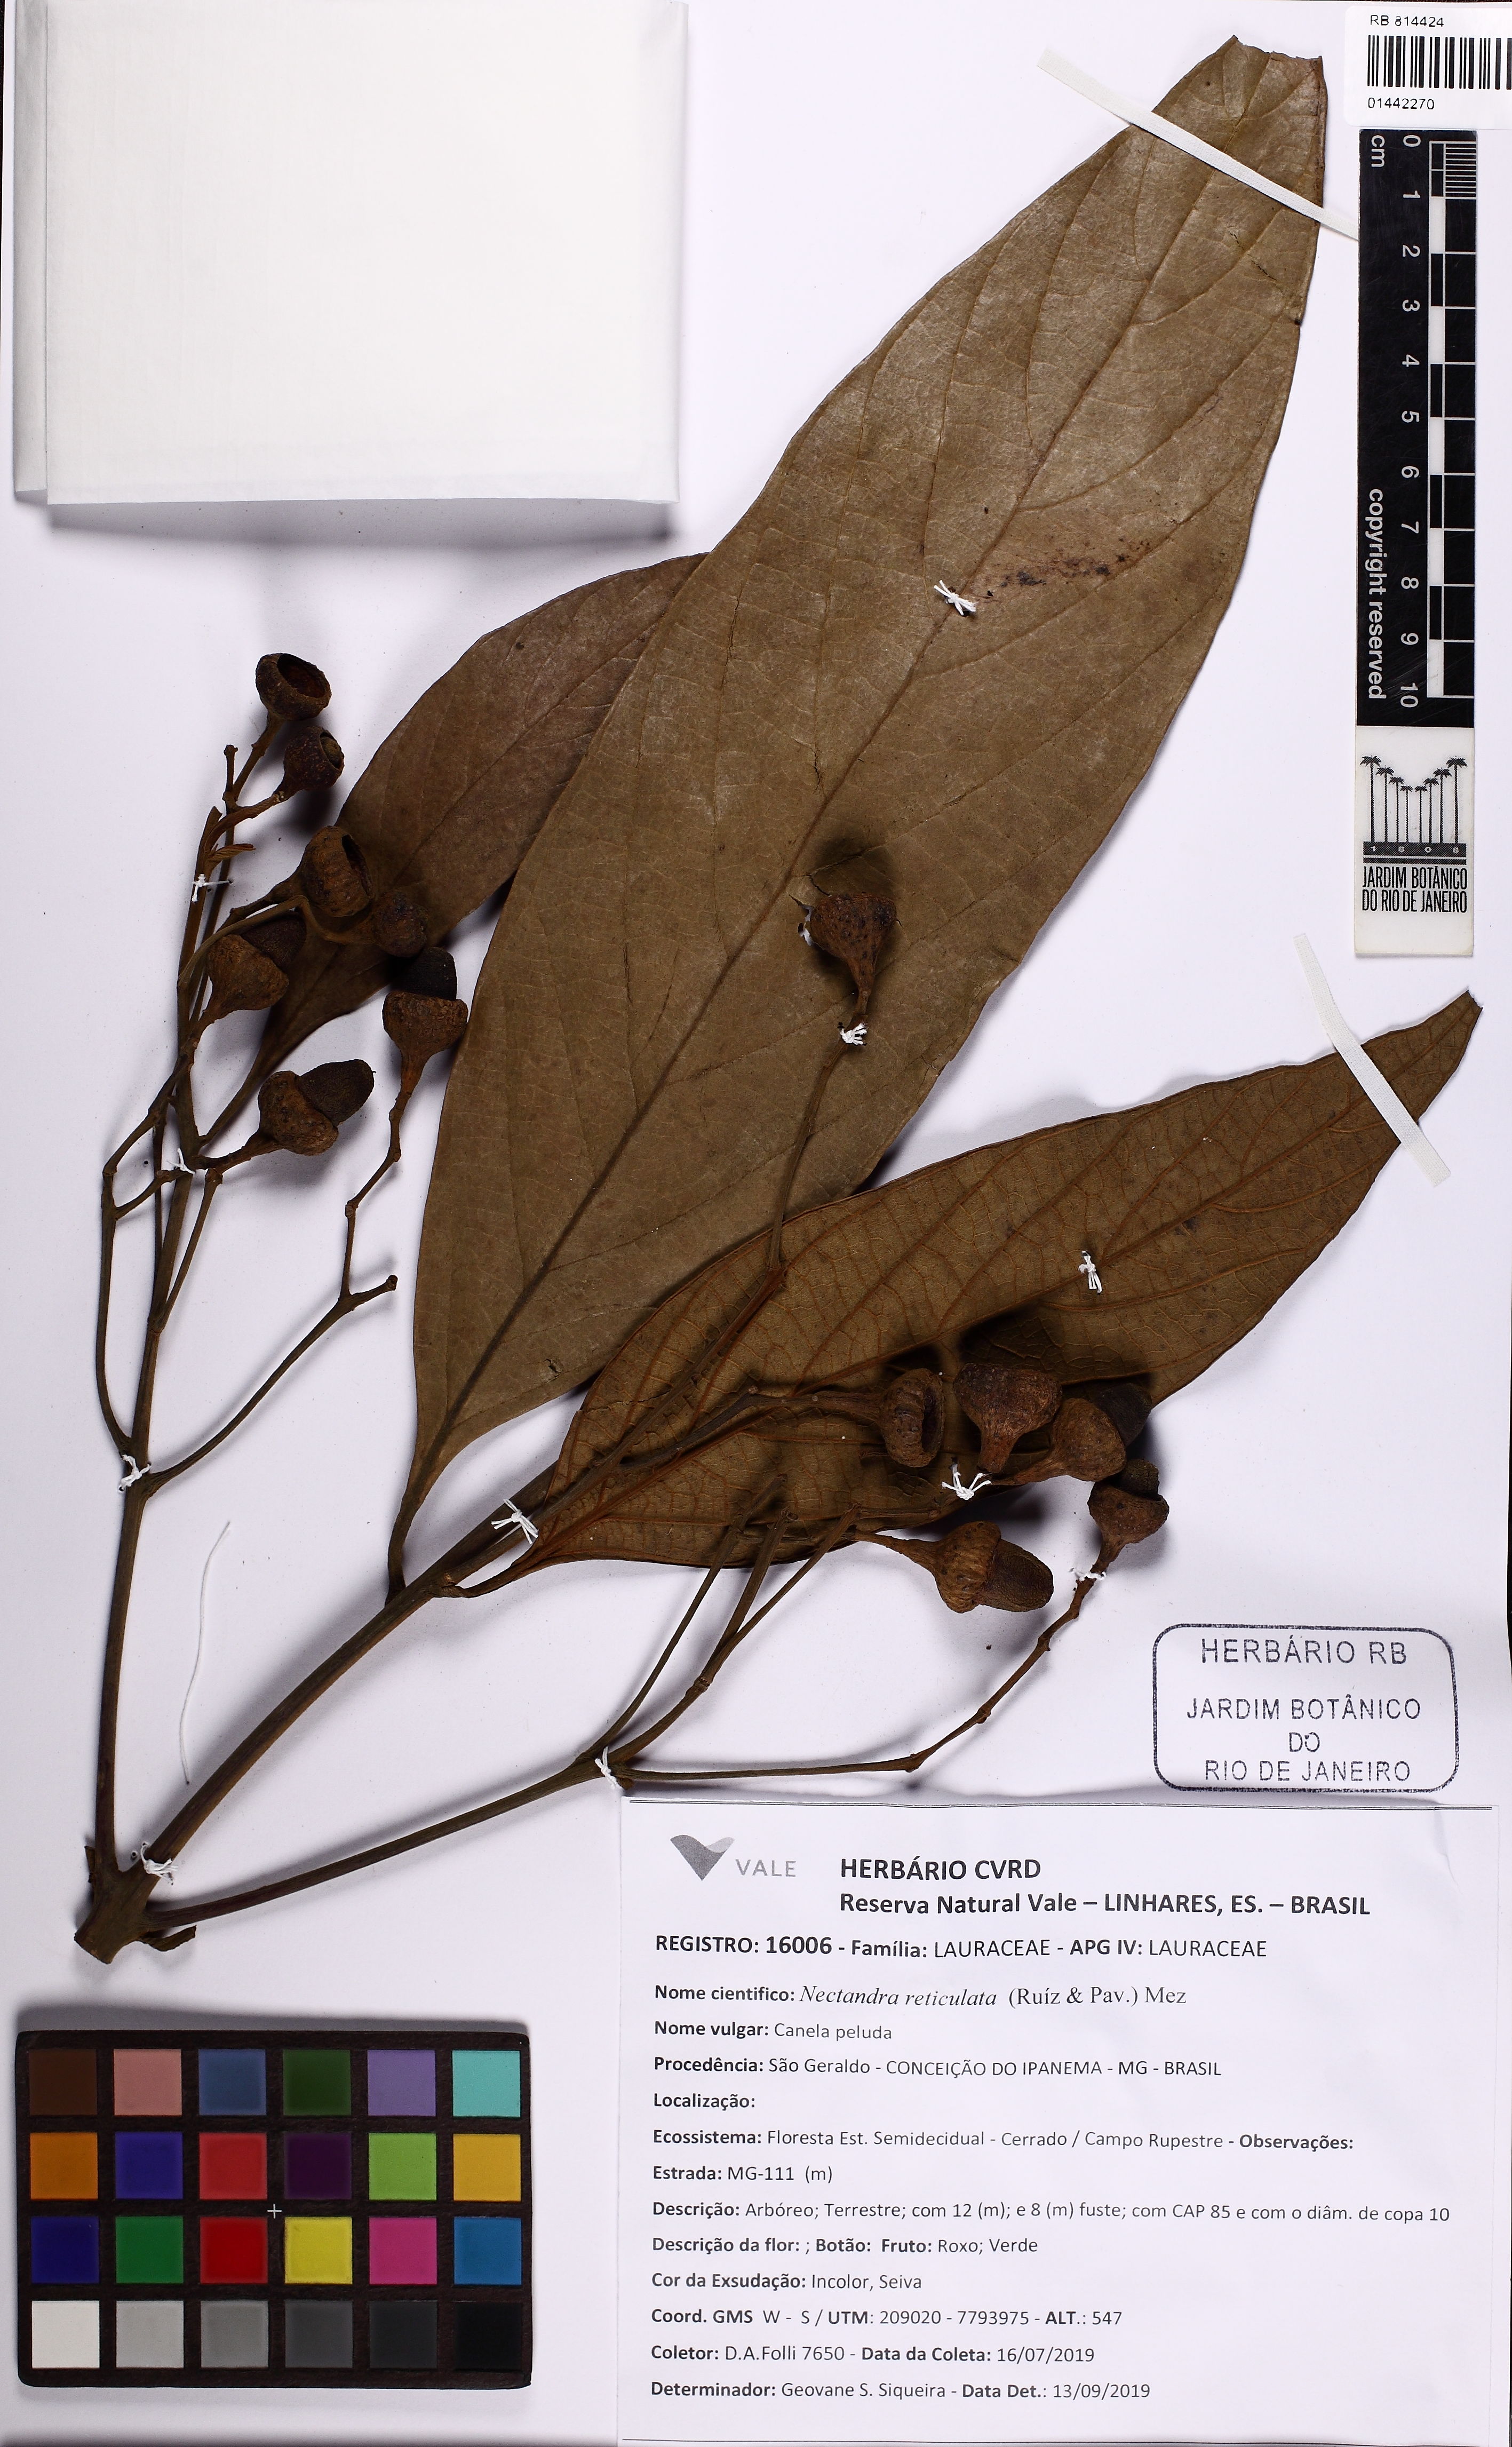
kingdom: Plantae
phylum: Tracheophyta
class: Magnoliopsida
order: Laurales
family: Lauraceae
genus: Nectandra
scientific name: Nectandra villosa
